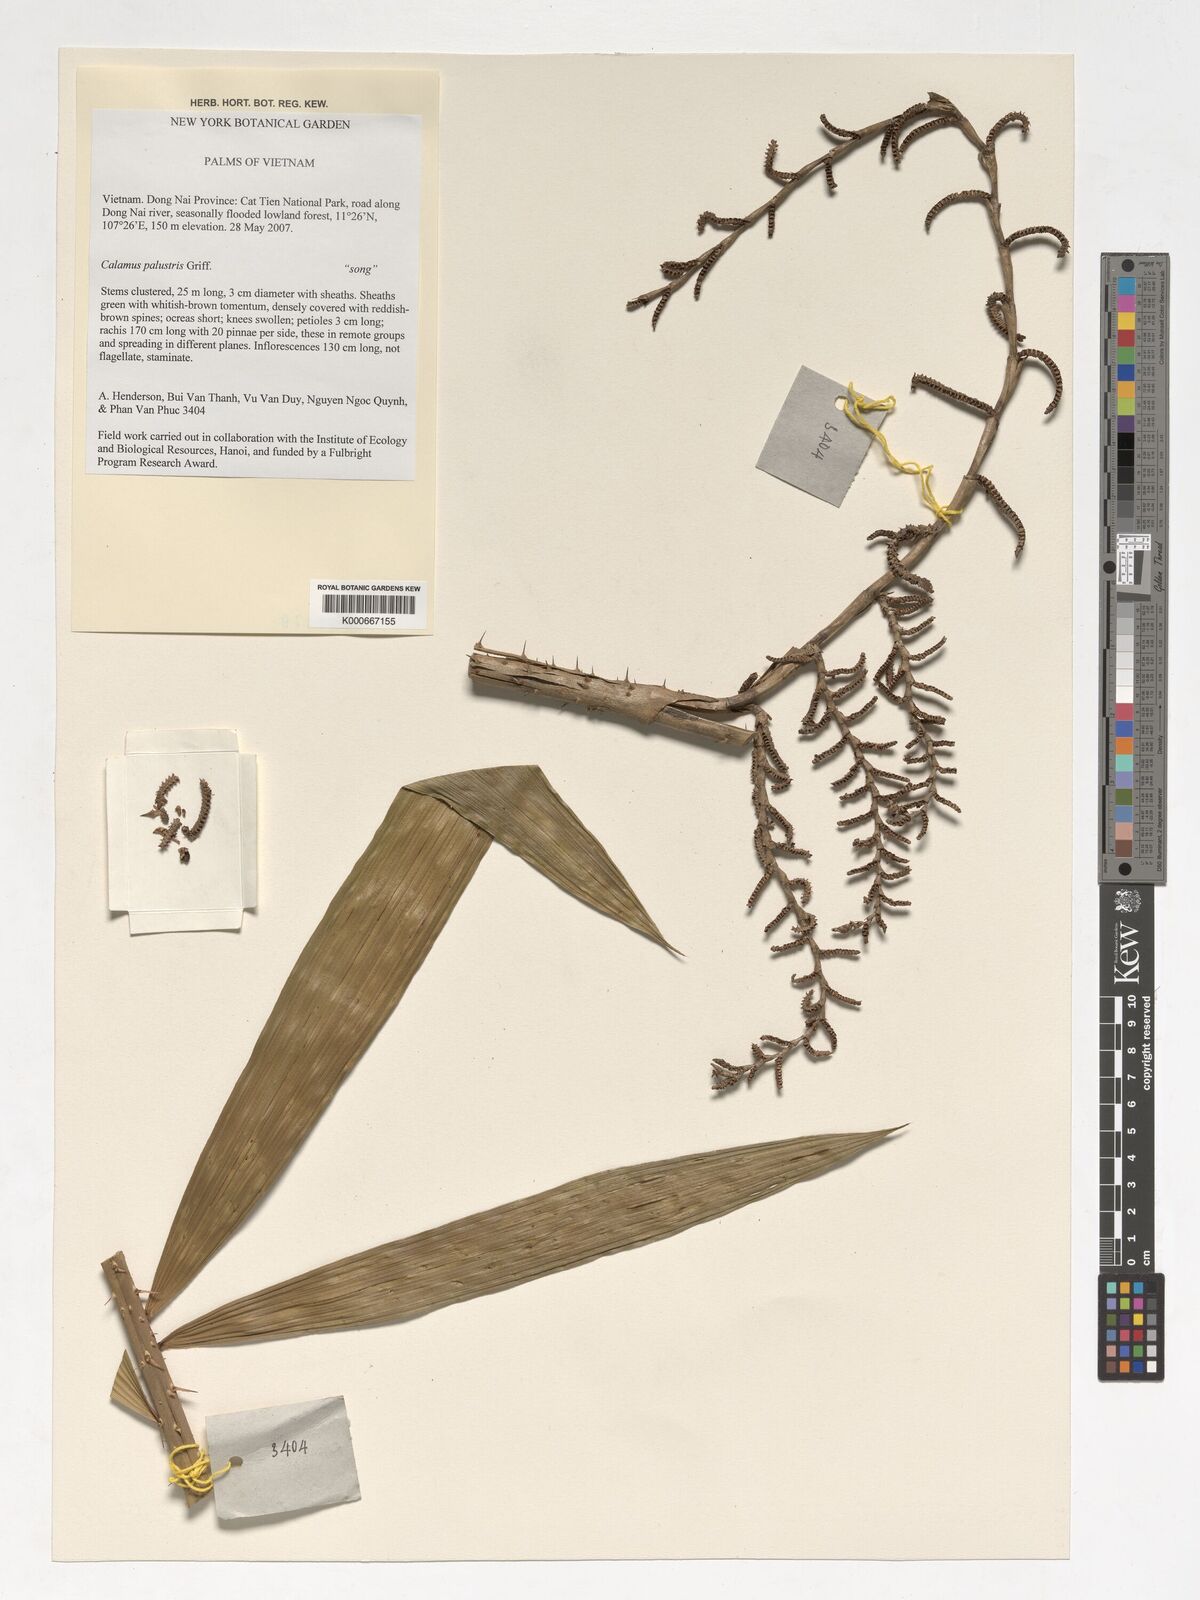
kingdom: Plantae
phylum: Tracheophyta
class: Liliopsida
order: Arecales
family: Arecaceae
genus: Calamus
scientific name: Calamus latifolius
